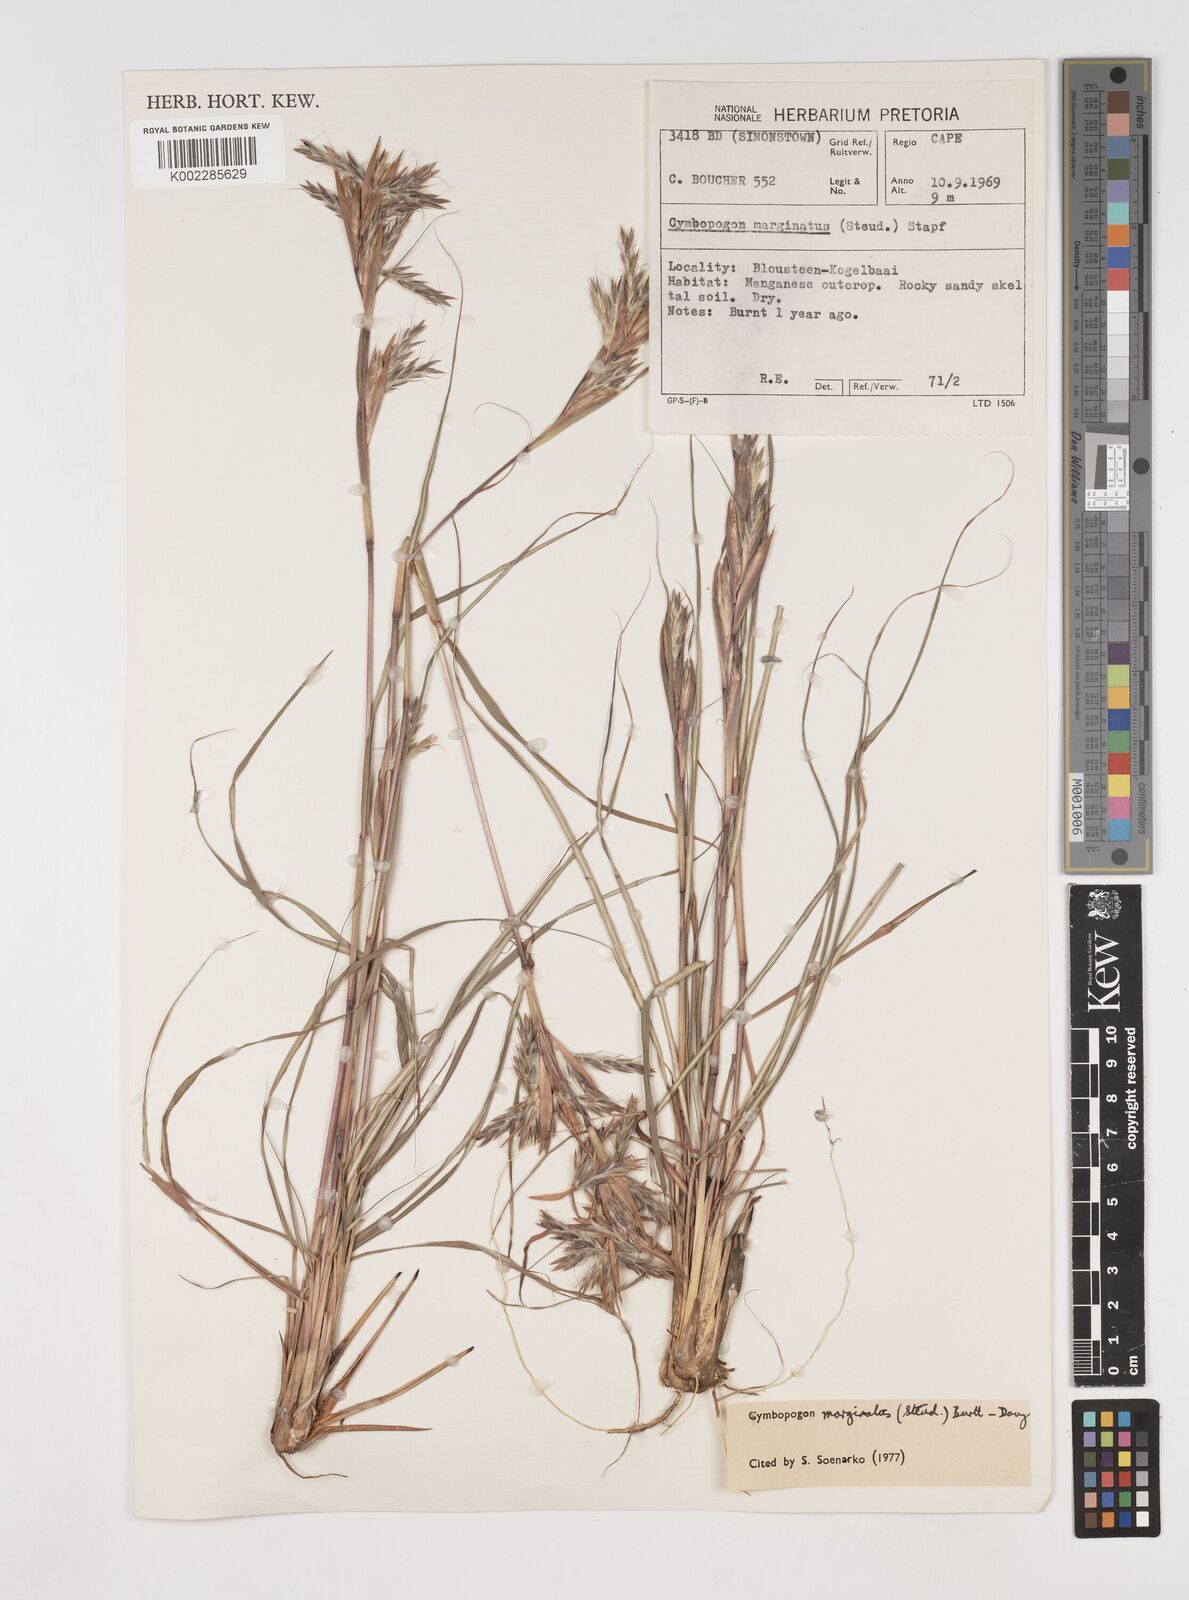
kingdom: Plantae
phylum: Tracheophyta
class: Liliopsida
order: Poales
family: Poaceae
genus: Cymbopogon
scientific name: Cymbopogon marginatus
